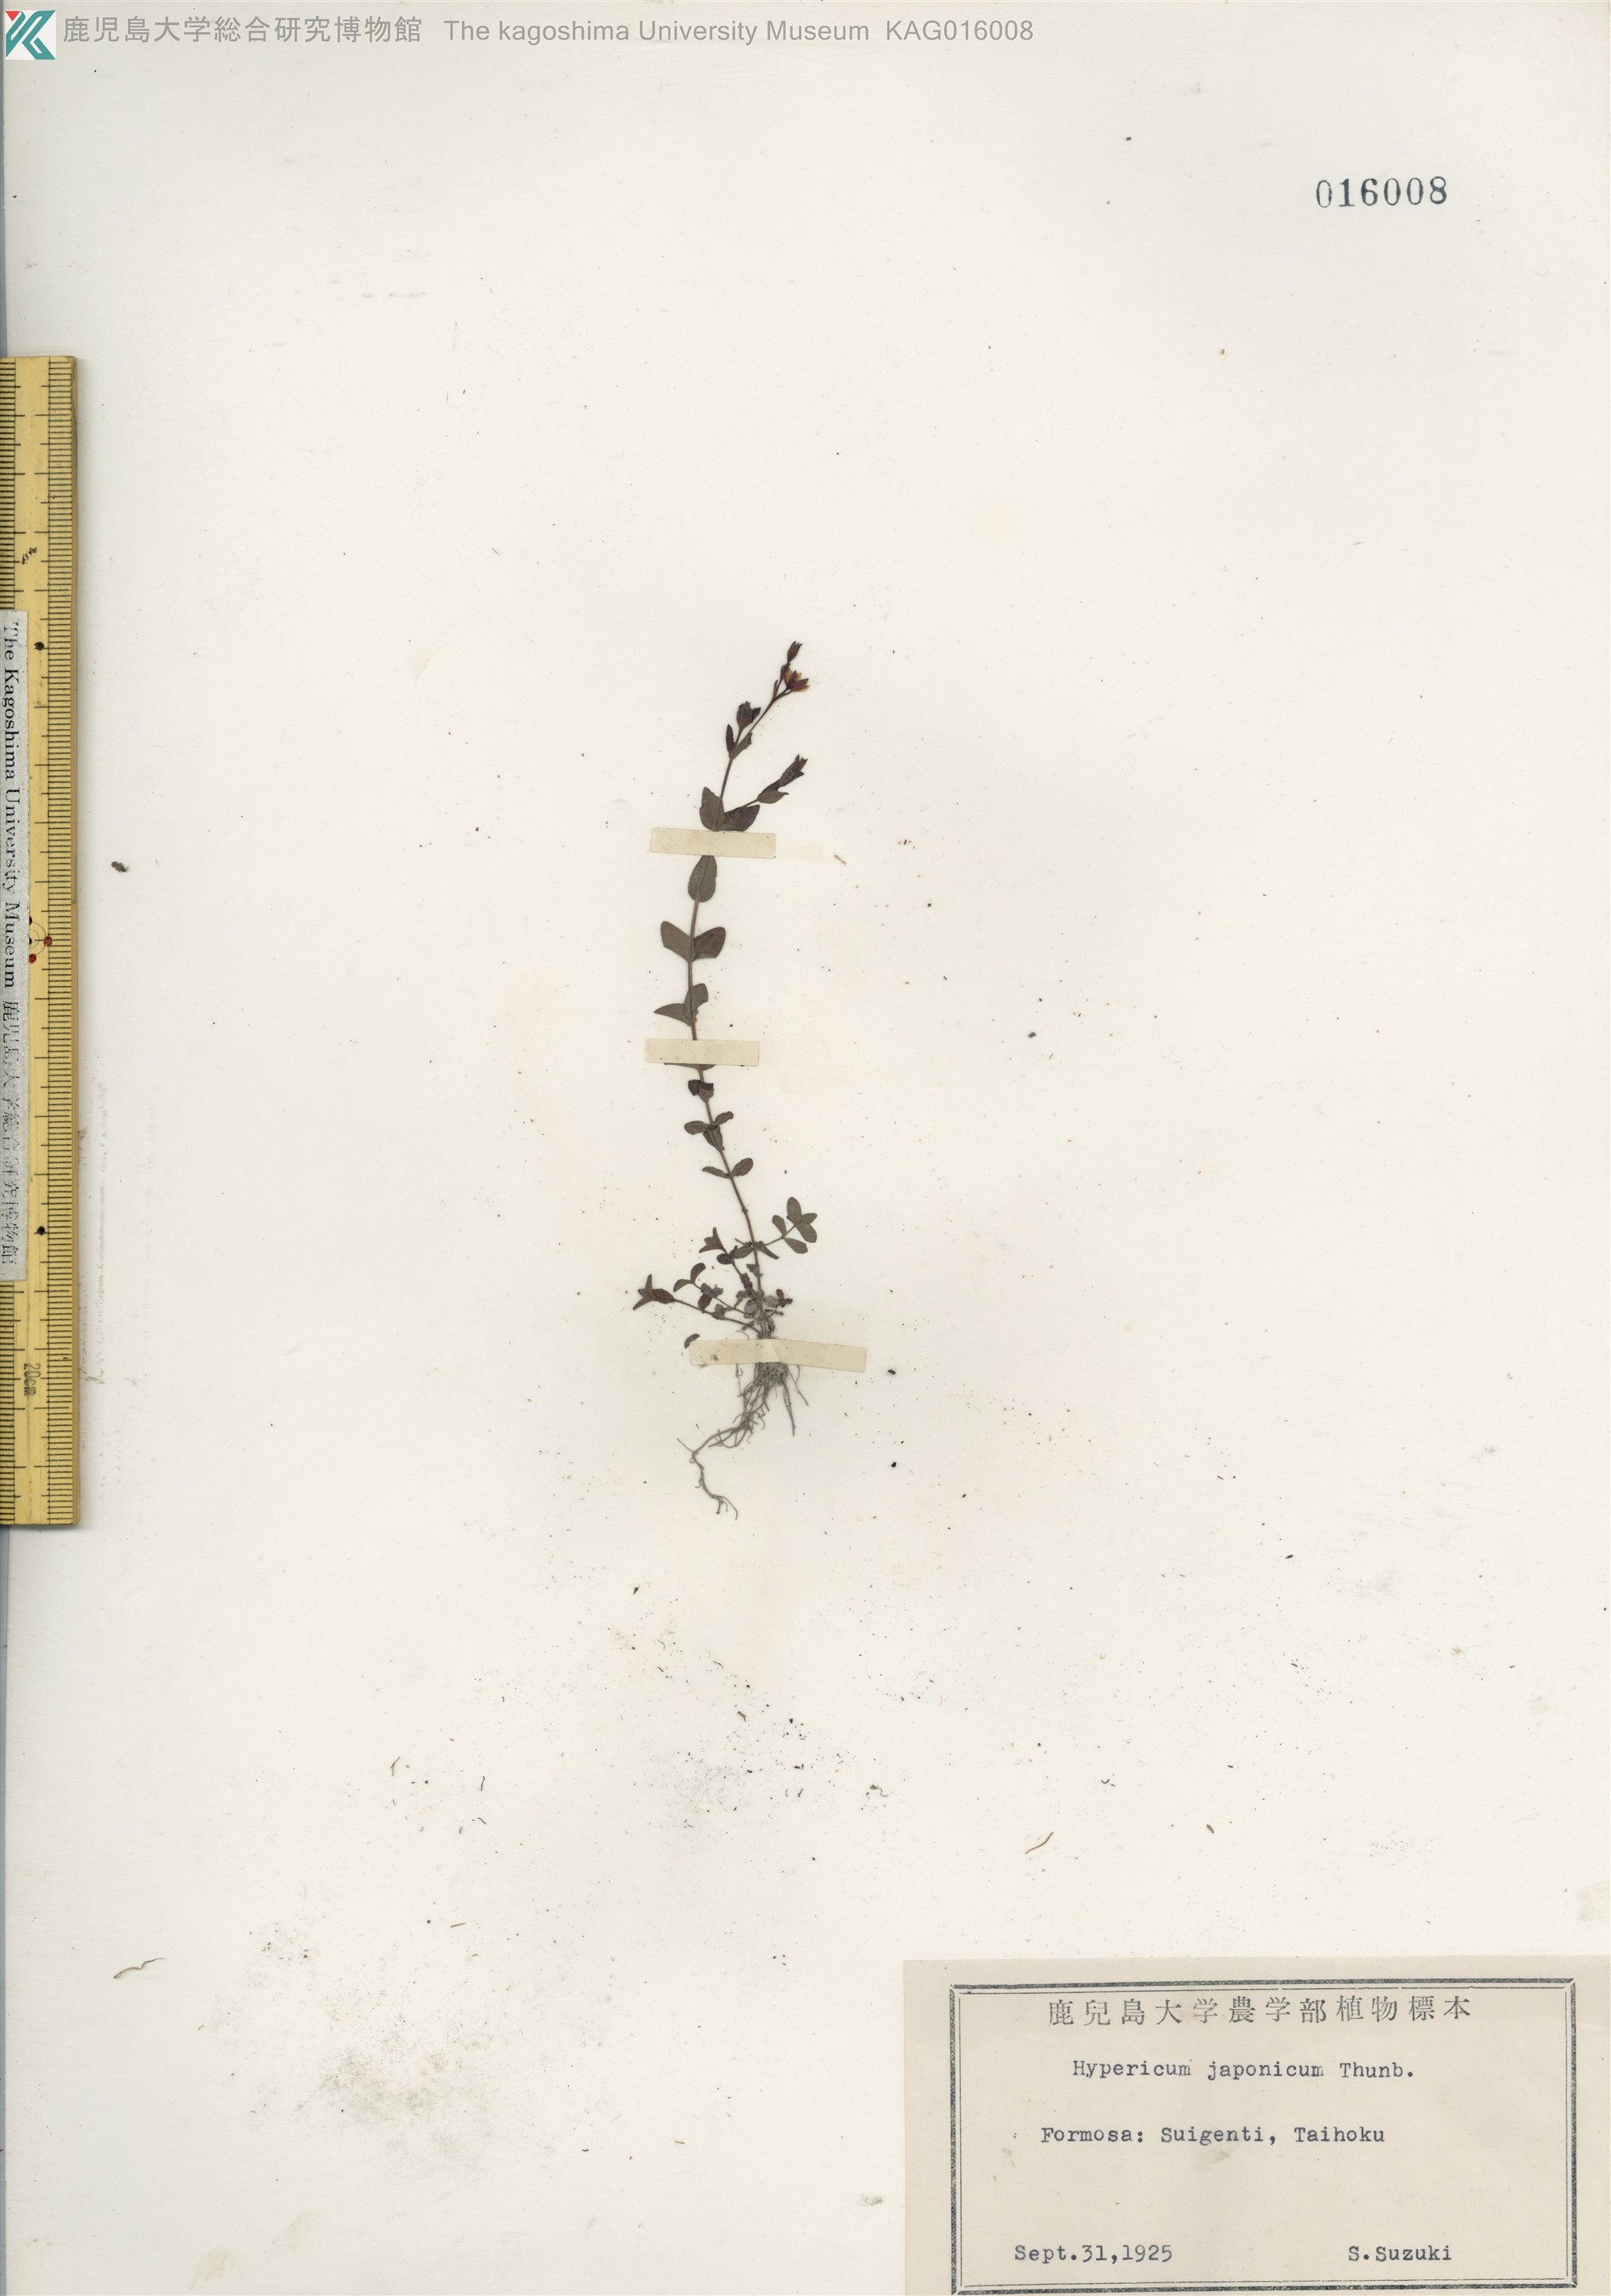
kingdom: Plantae
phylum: Tracheophyta
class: Magnoliopsida
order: Malpighiales
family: Hypericaceae
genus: Hypericum
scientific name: Hypericum japonicum
